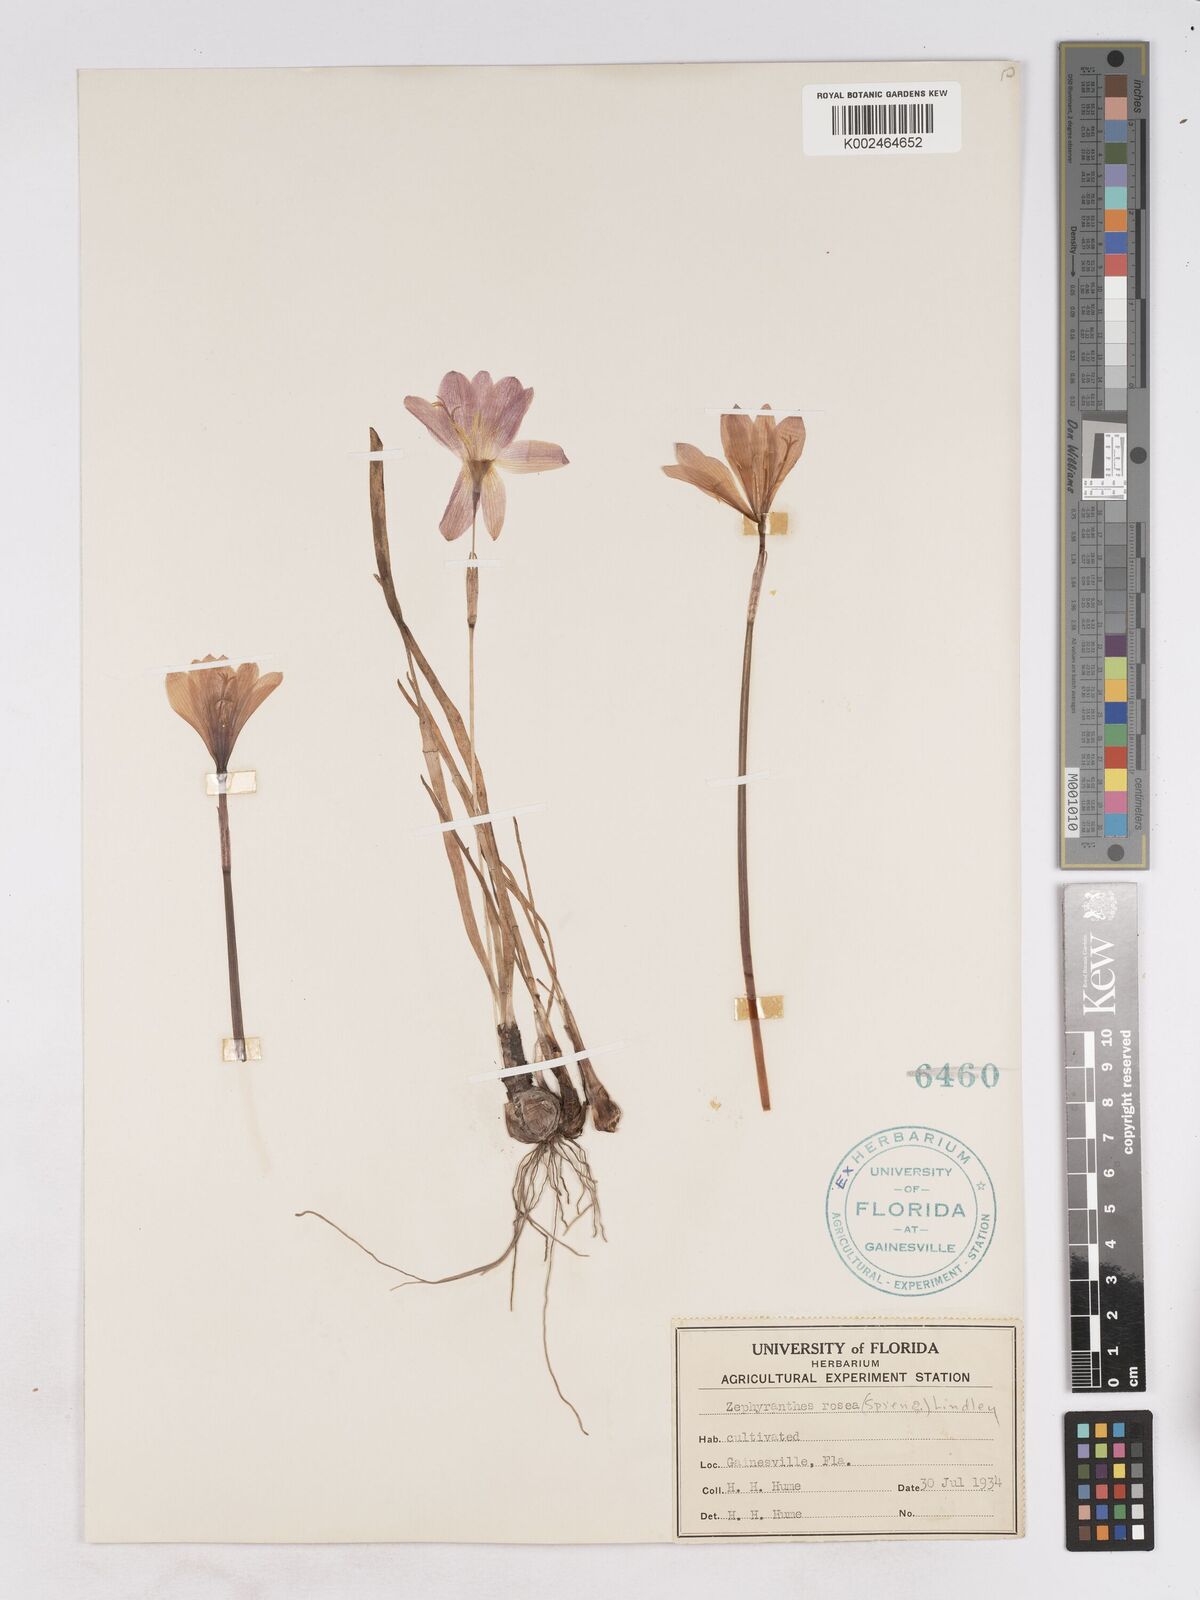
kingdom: Plantae
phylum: Tracheophyta
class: Liliopsida
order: Asparagales
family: Amaryllidaceae
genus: Zephyranthes
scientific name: Zephyranthes rosea
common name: Cuban zephyrlily
